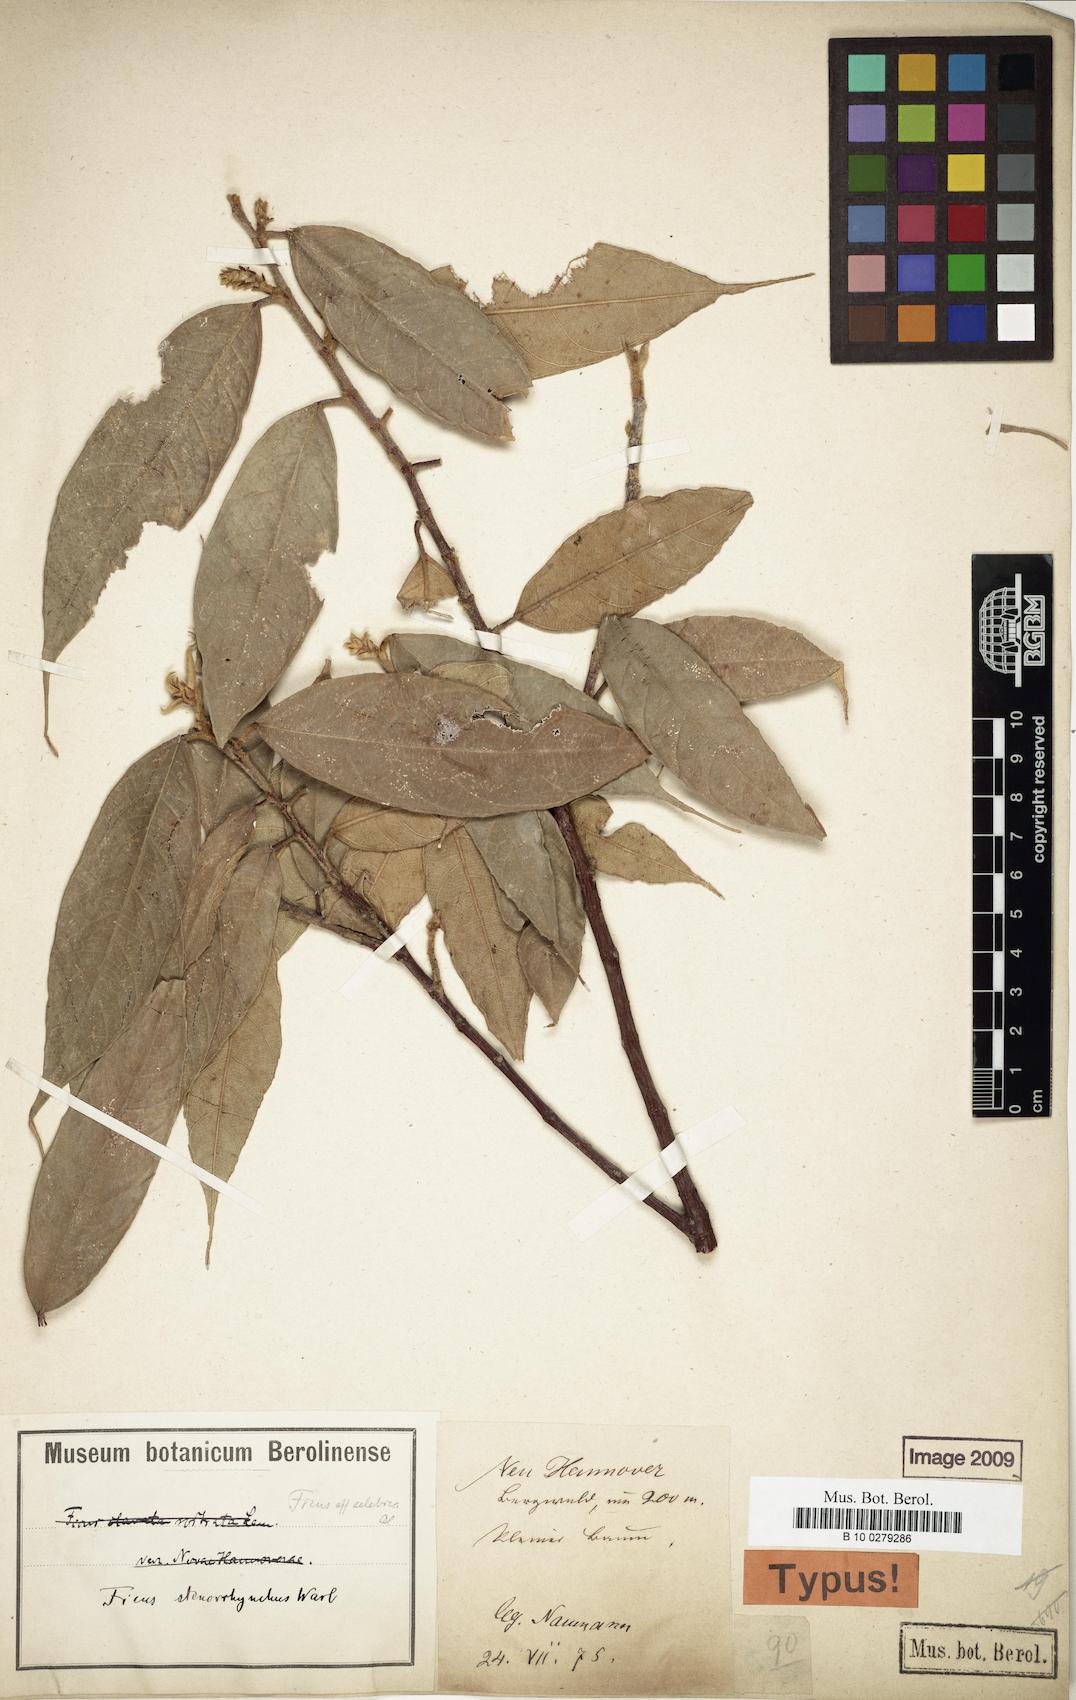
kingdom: Plantae
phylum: Tracheophyta
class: Magnoliopsida
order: Rosales
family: Moraceae
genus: Ficus
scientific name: Ficus macrorrhyncha
